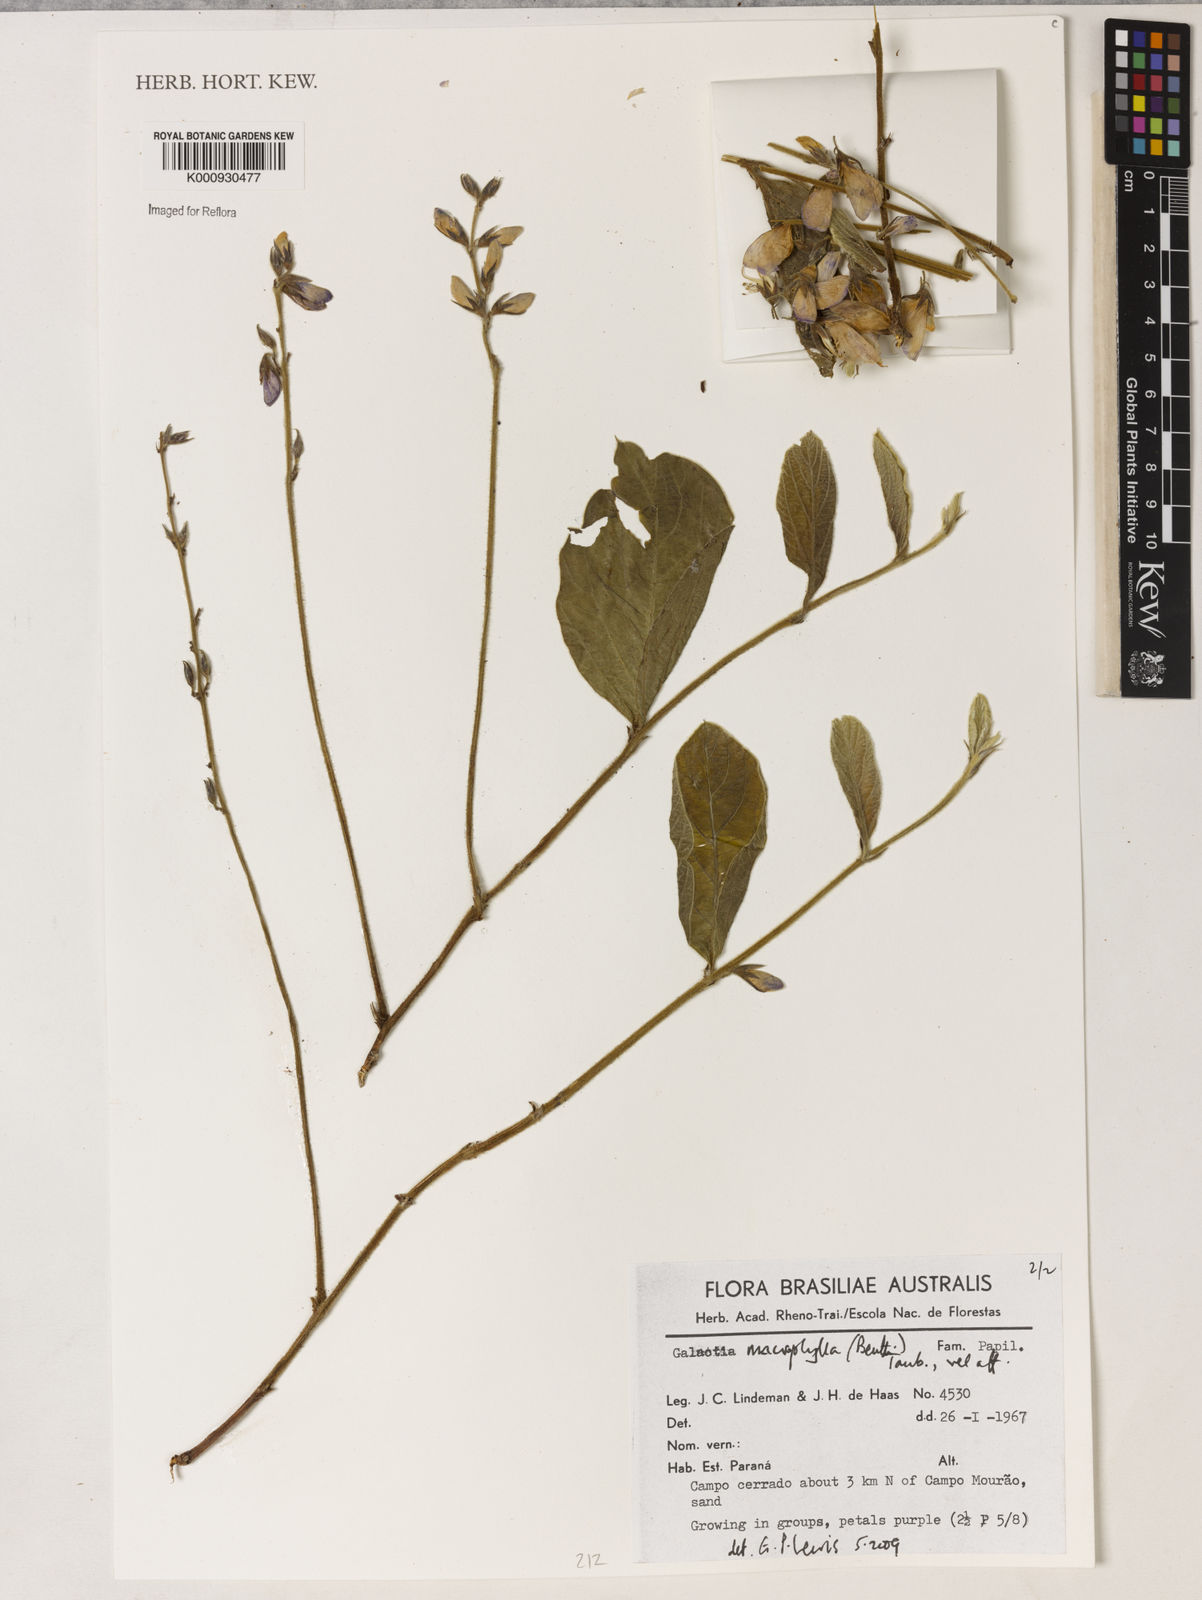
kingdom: Plantae
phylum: Tracheophyta
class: Magnoliopsida
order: Fabales
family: Fabaceae
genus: Cerradicola
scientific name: Cerradicola boavista
